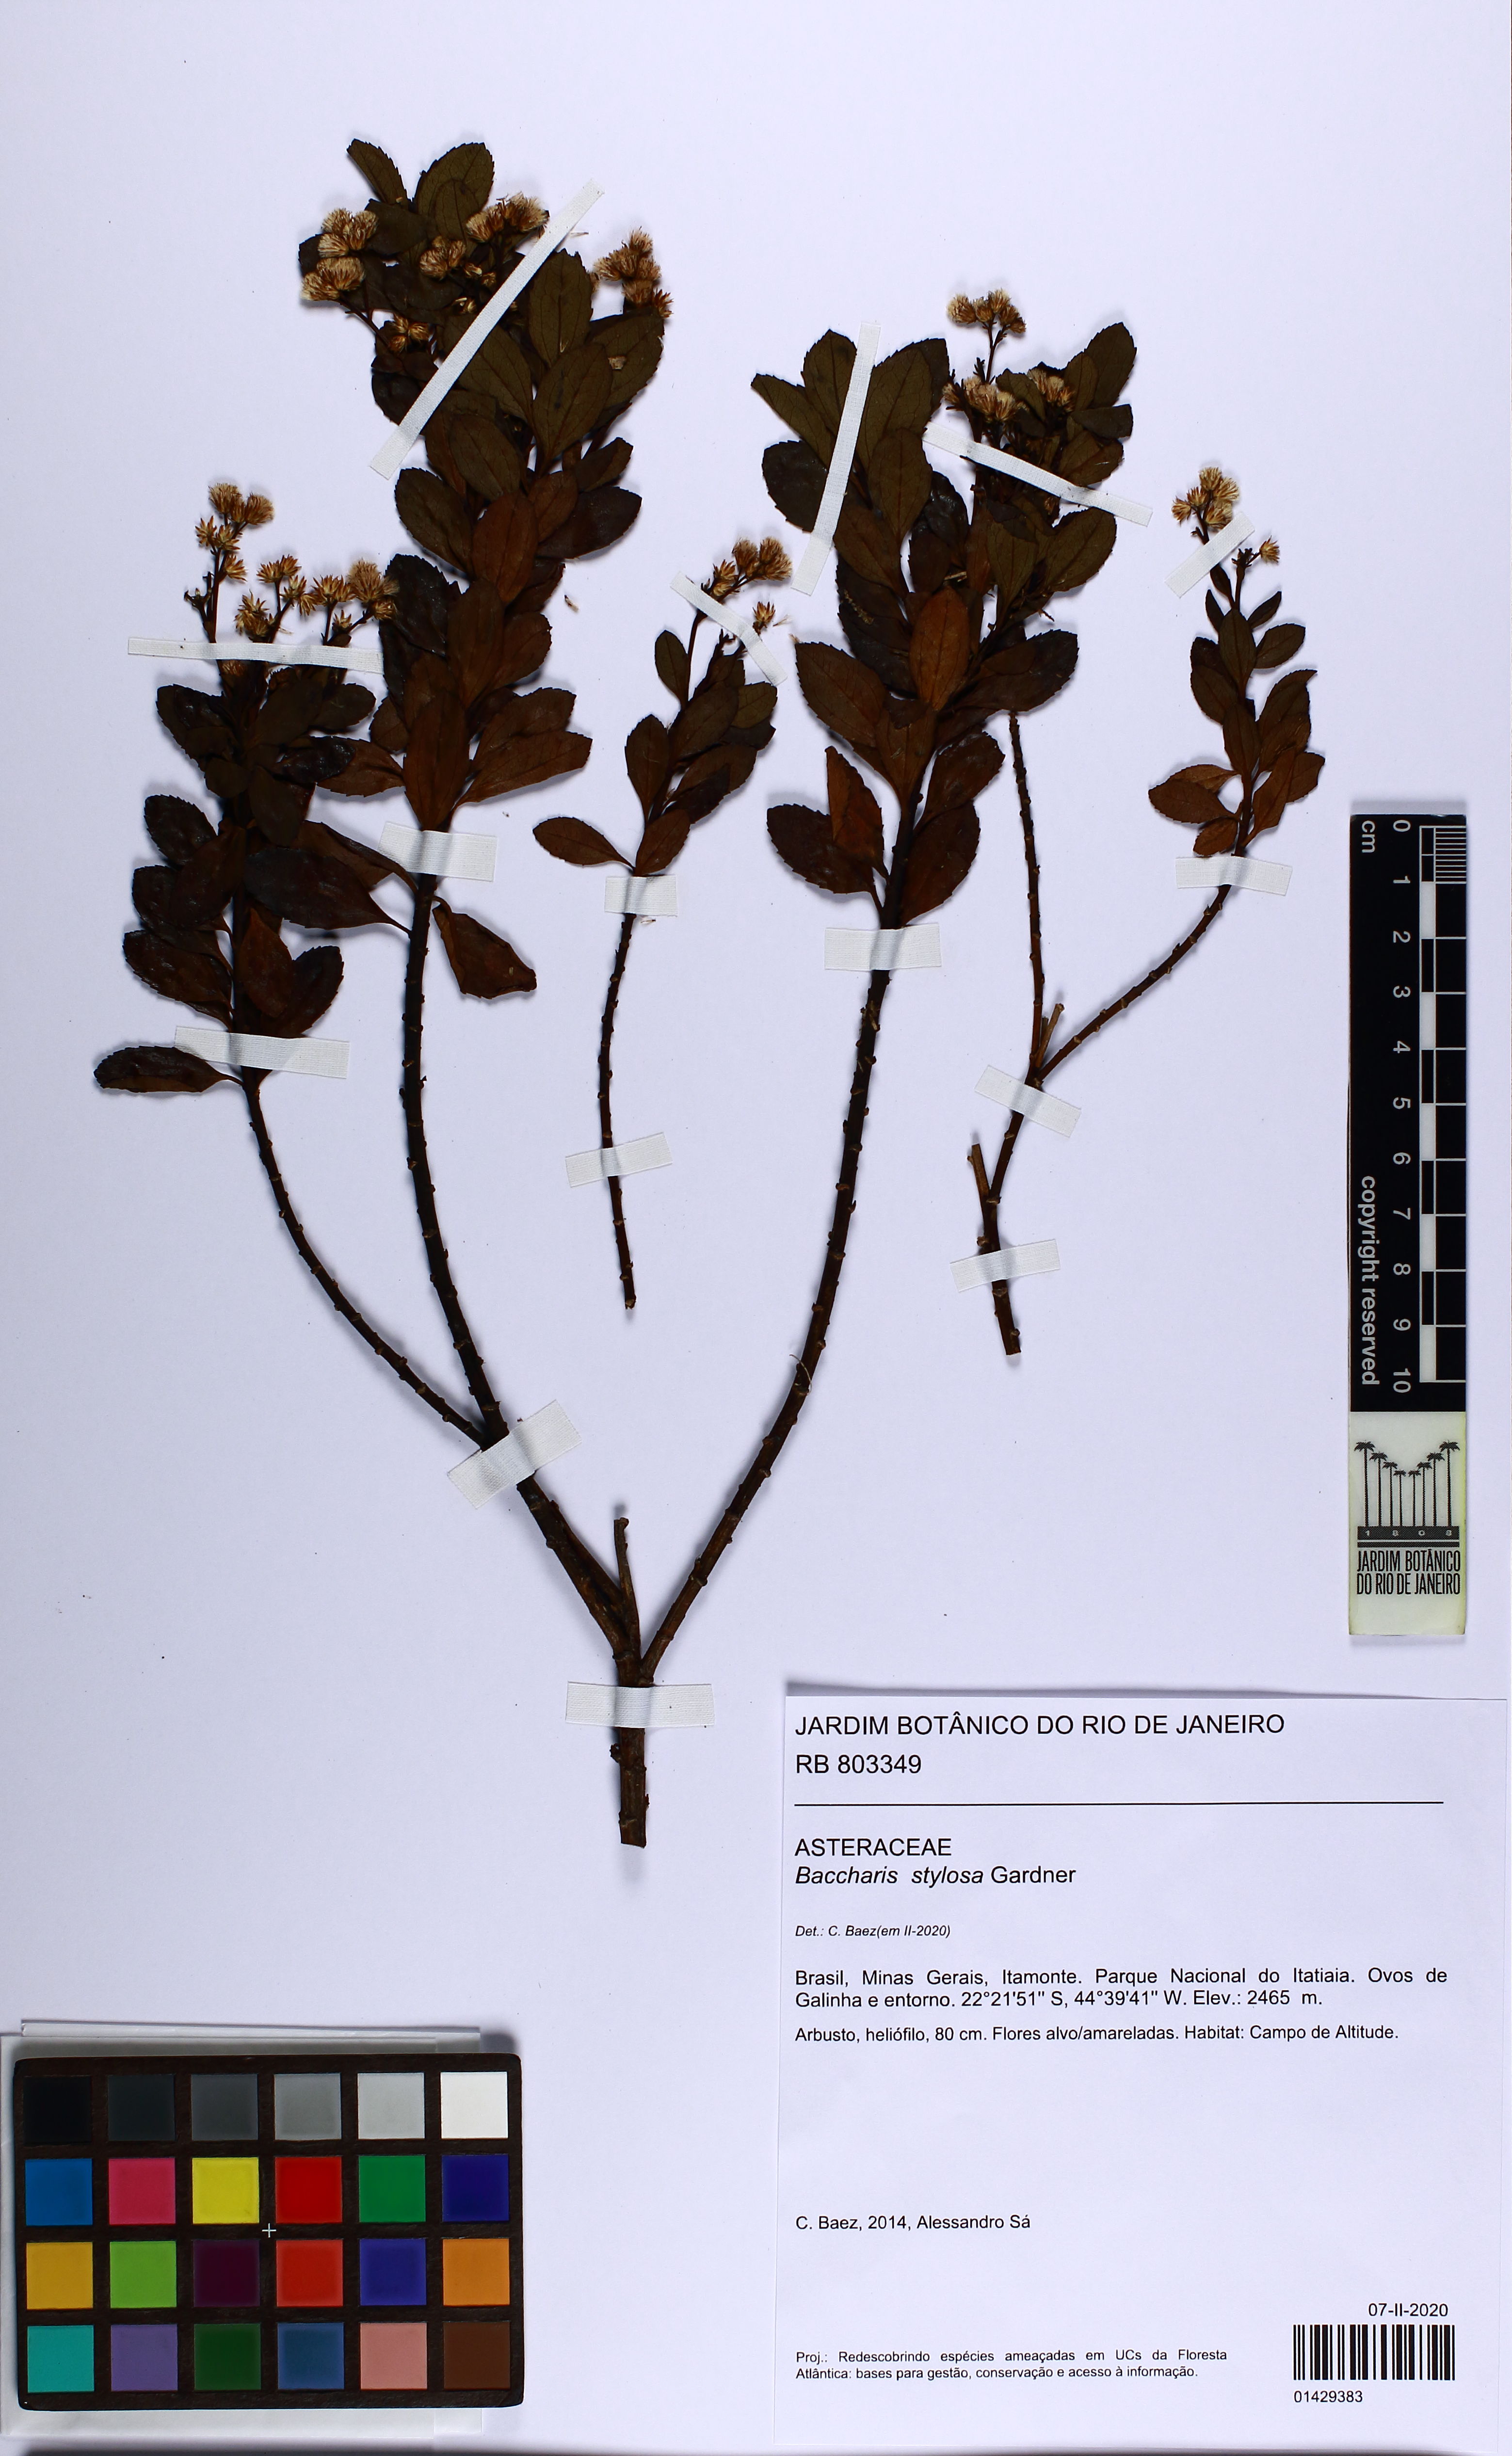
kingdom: Plantae
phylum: Tracheophyta
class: Magnoliopsida
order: Asterales
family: Asteraceae
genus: Baccharis
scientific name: Baccharis stylosa
